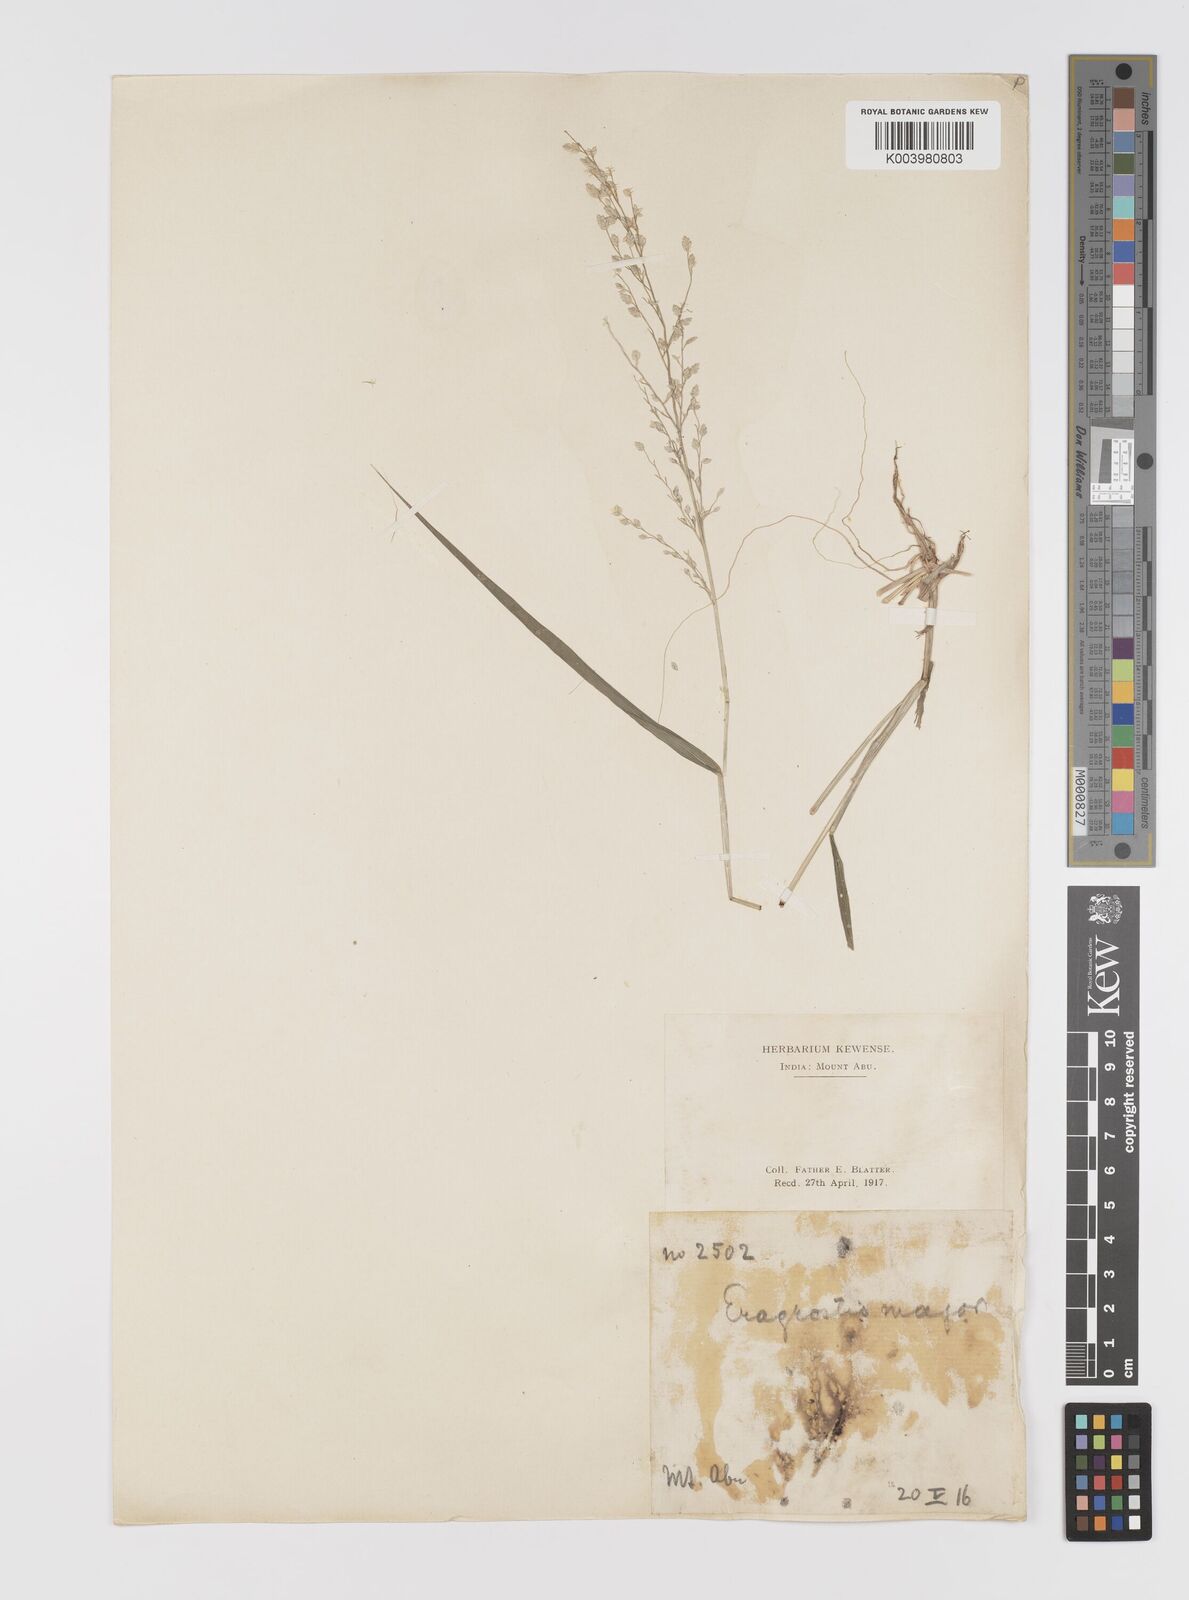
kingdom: Plantae
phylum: Tracheophyta
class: Liliopsida
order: Poales
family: Poaceae
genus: Eragrostis
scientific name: Eragrostis cilianensis
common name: Stinkgrass
